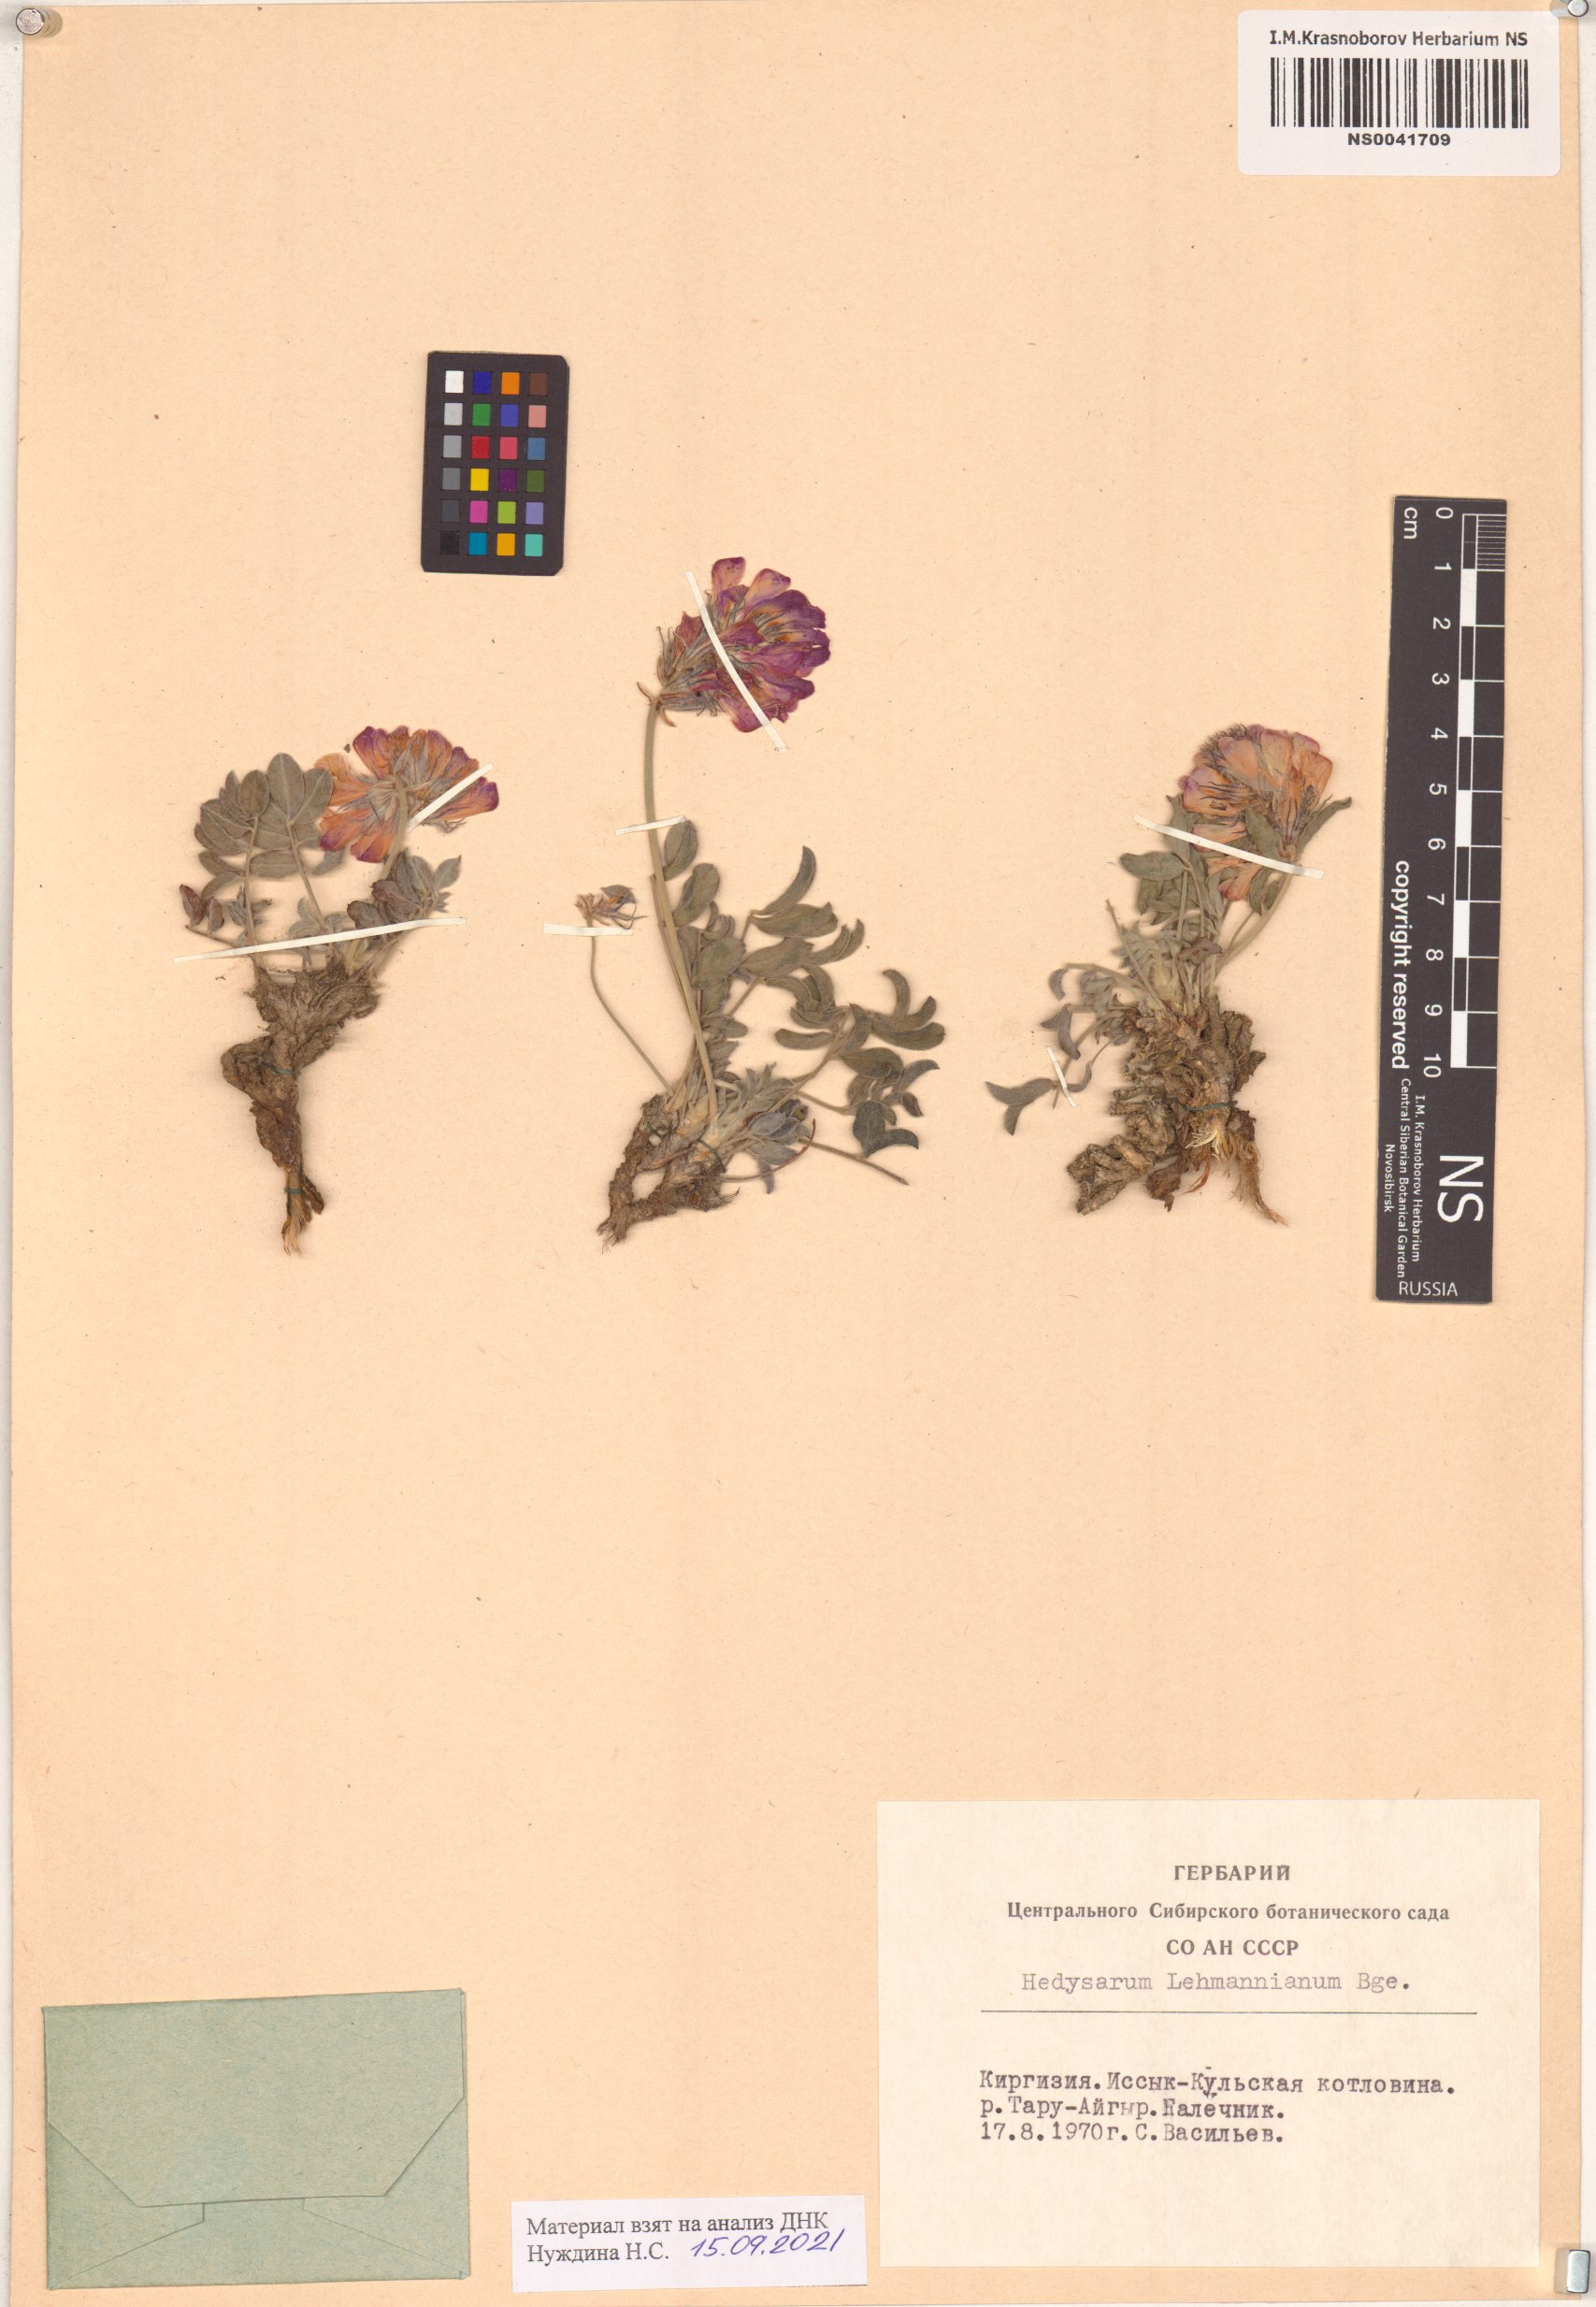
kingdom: Plantae
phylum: Tracheophyta
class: Magnoliopsida
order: Fabales
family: Fabaceae
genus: Hedysarum
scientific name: Hedysarum lehmannianum
